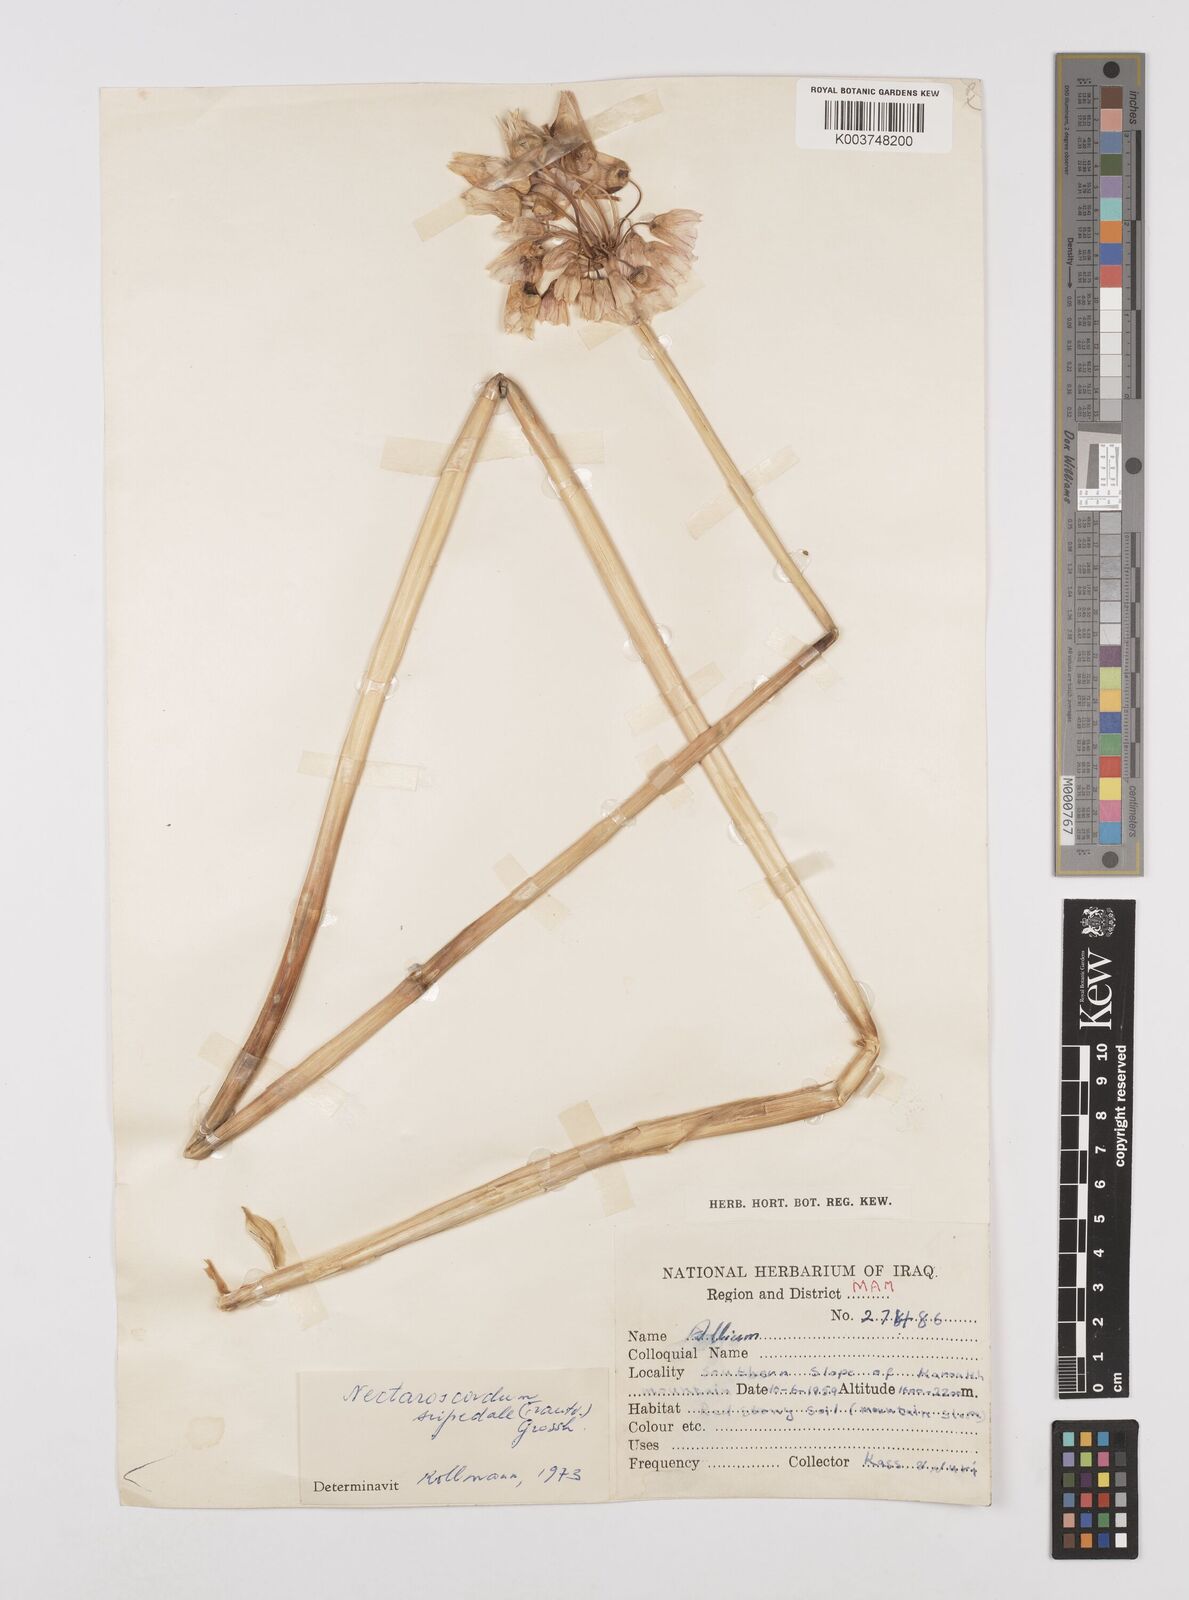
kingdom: Plantae
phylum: Tracheophyta
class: Liliopsida
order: Asparagales
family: Amaryllidaceae
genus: Allium
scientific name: Allium tripedale
